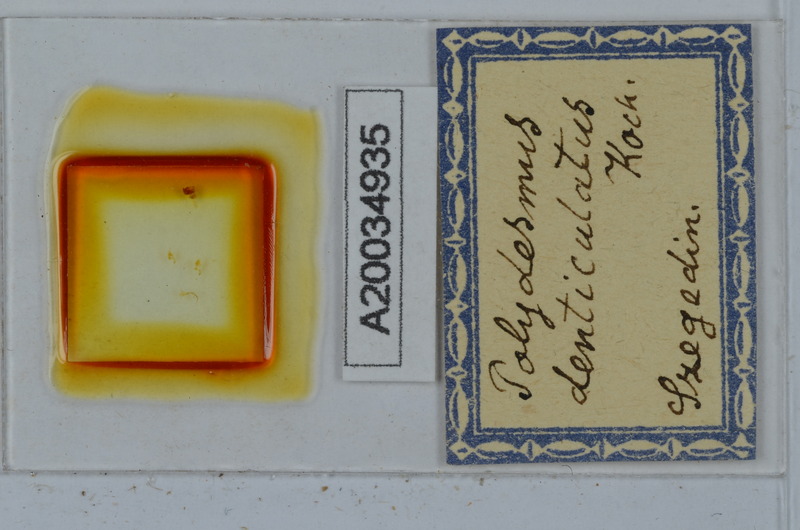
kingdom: Animalia
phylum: Arthropoda
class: Diplopoda
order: Polydesmida
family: Polydesmidae
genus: Polydesmus
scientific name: Polydesmus denticulatus
